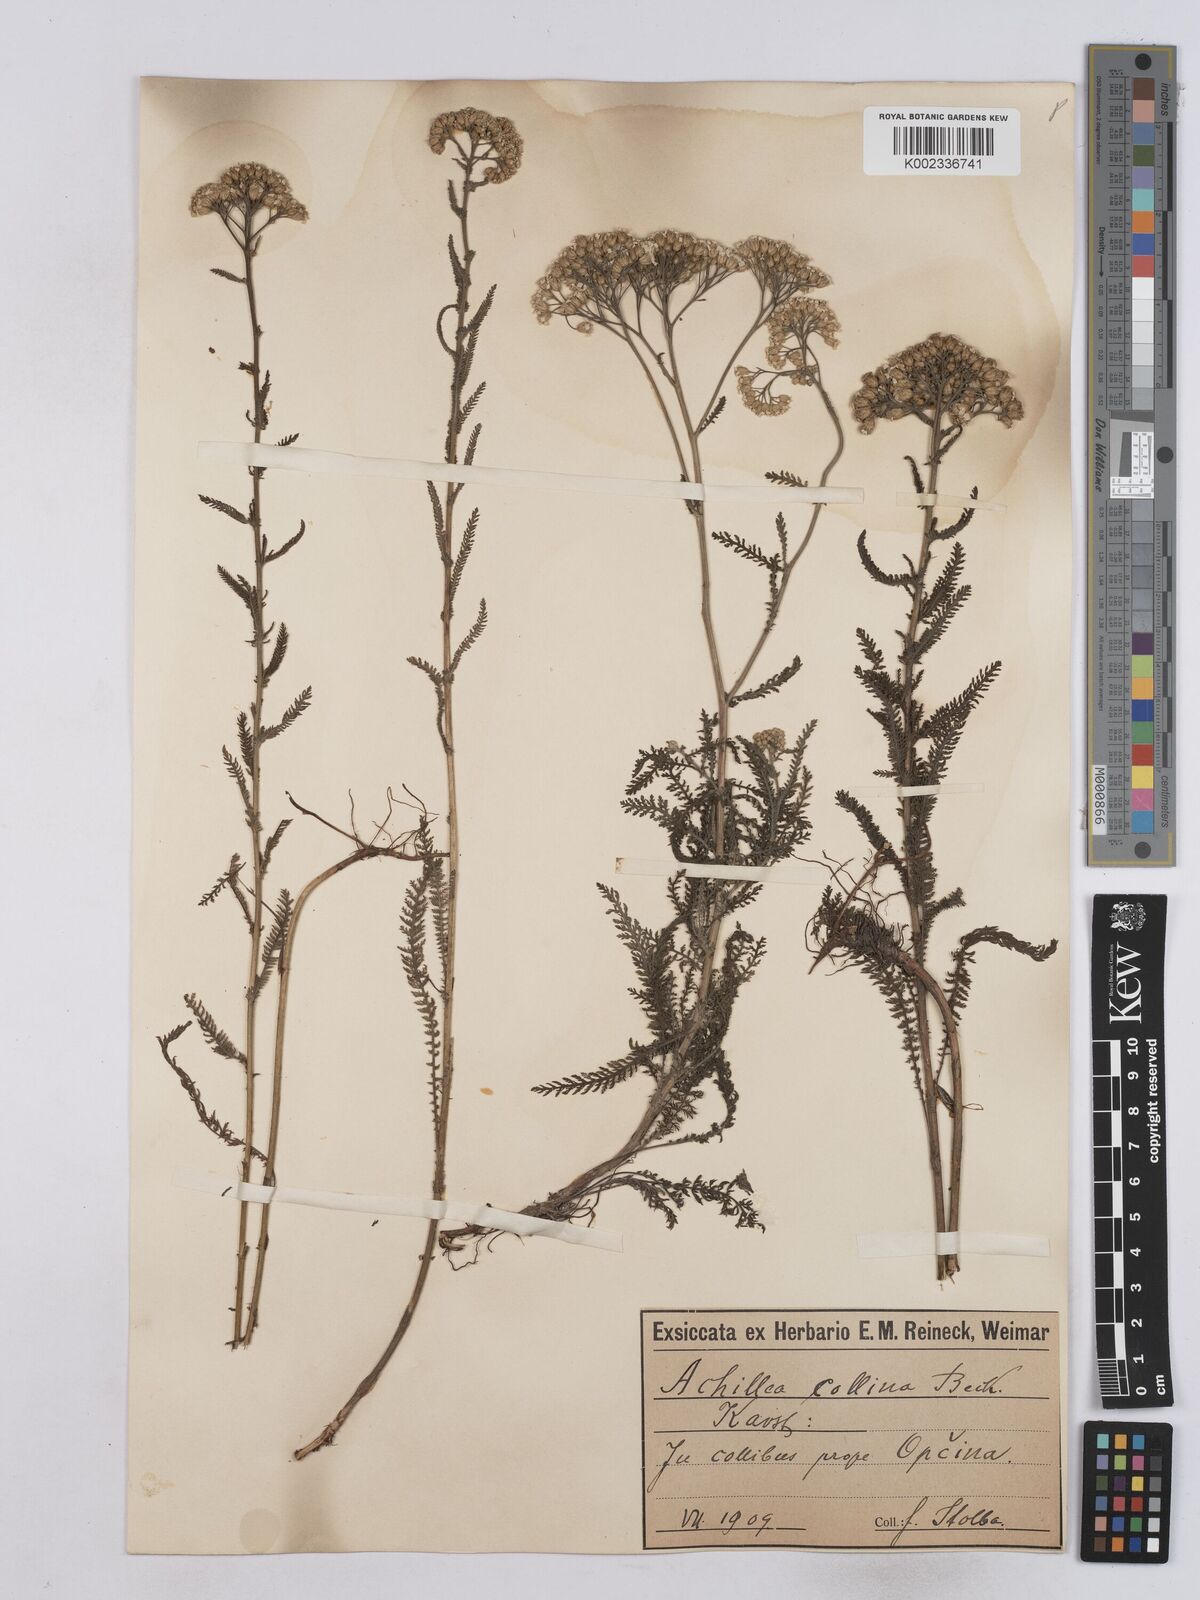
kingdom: Plantae
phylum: Tracheophyta
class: Magnoliopsida
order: Asterales
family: Asteraceae
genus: Achillea
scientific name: Achillea collina
